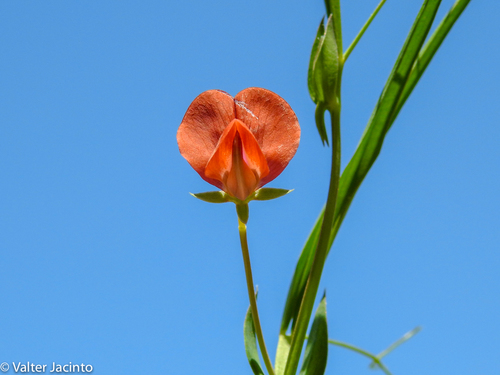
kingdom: Plantae
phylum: Tracheophyta
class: Magnoliopsida
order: Fabales
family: Fabaceae
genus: Lathyrus
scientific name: Lathyrus cicera
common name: Red vetchling
